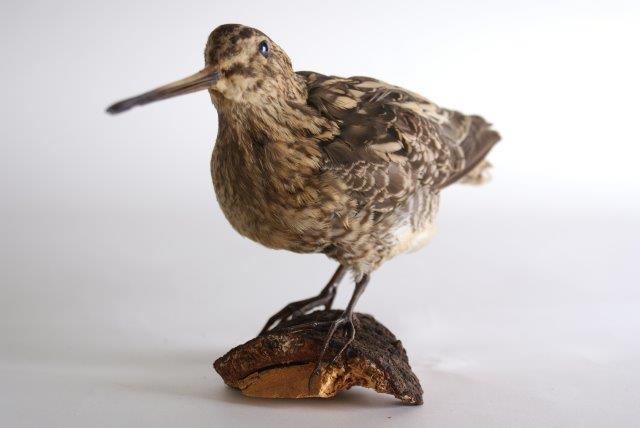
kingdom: Animalia
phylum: Chordata
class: Aves
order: Charadriiformes
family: Scolopacidae
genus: Gallinago
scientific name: Gallinago gallinago
